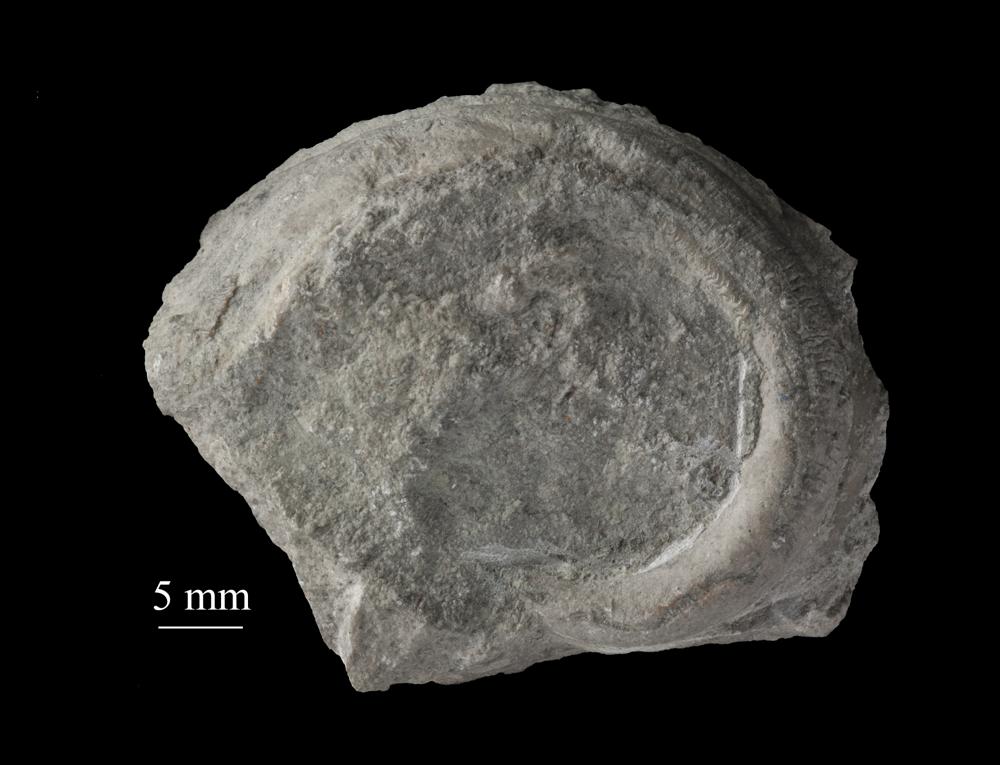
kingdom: Animalia
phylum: Mollusca
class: Gastropoda
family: Euomphalidae
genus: Ecculiomphalus
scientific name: Ecculiomphalus
